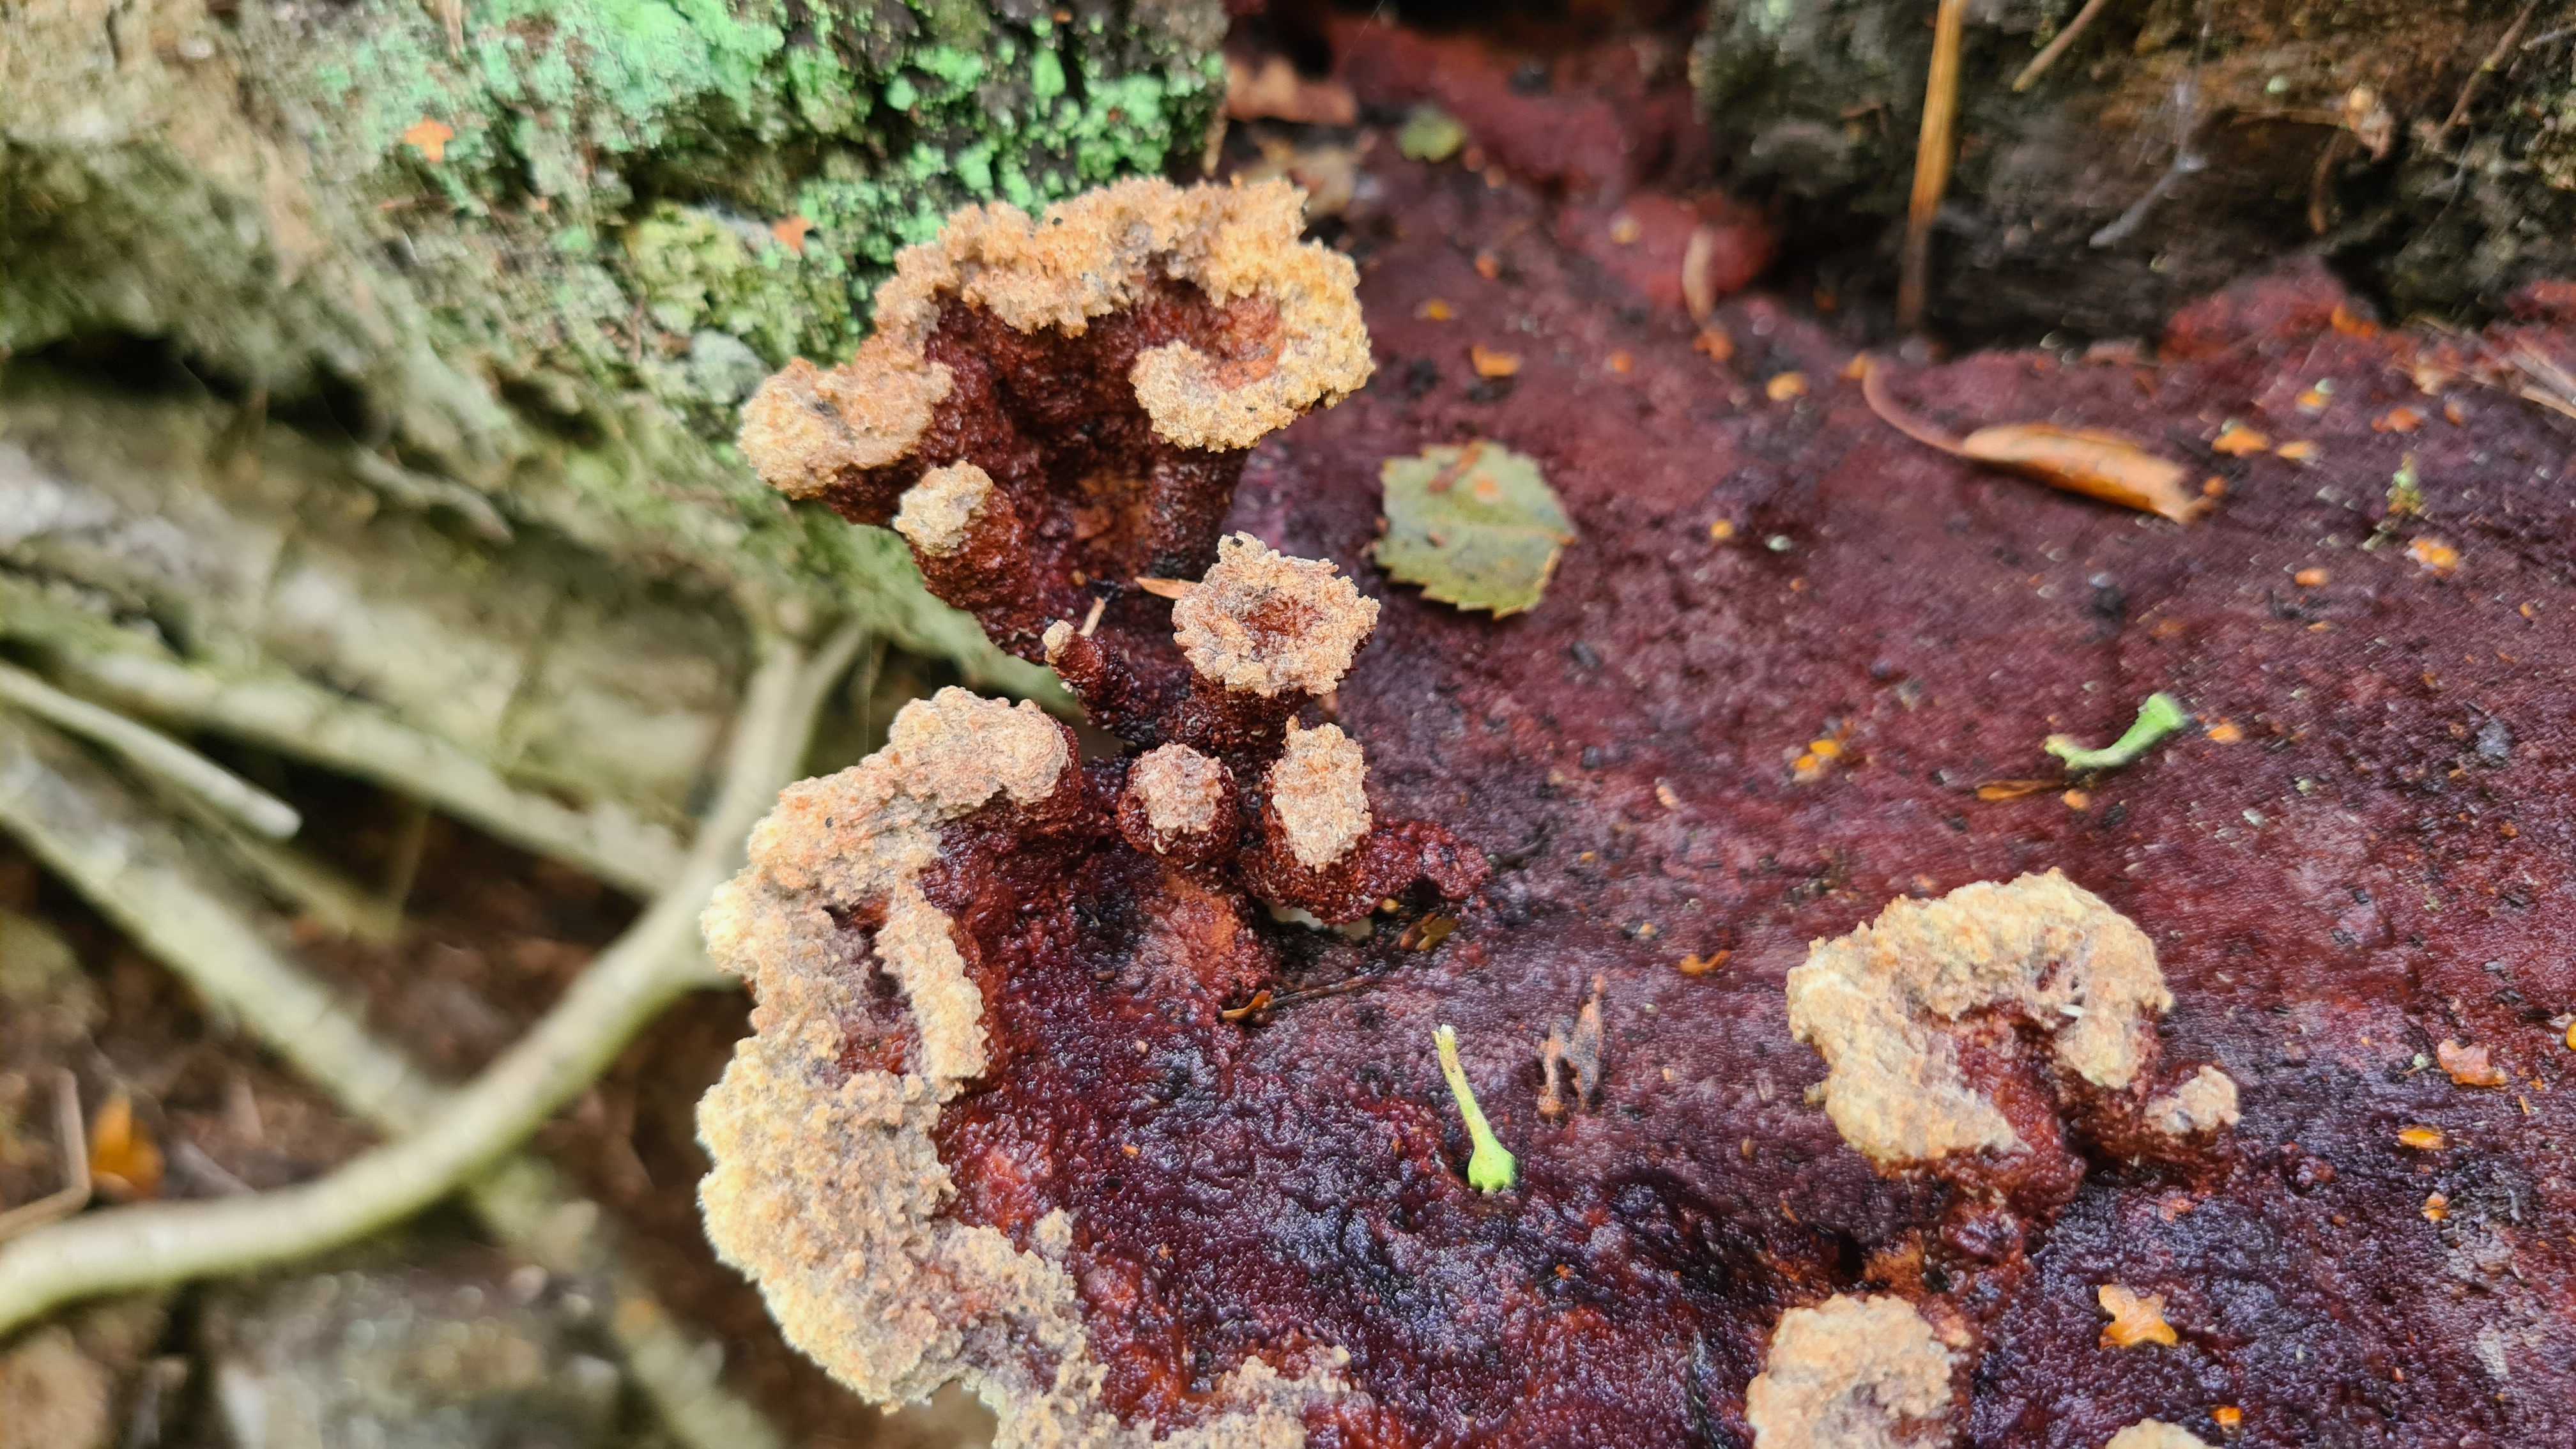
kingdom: Fungi
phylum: Basidiomycota
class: Agaricomycetes
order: Polyporales
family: Laetiporaceae
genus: Phaeolus
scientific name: Phaeolus schweinitzii
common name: brunporesvamp
